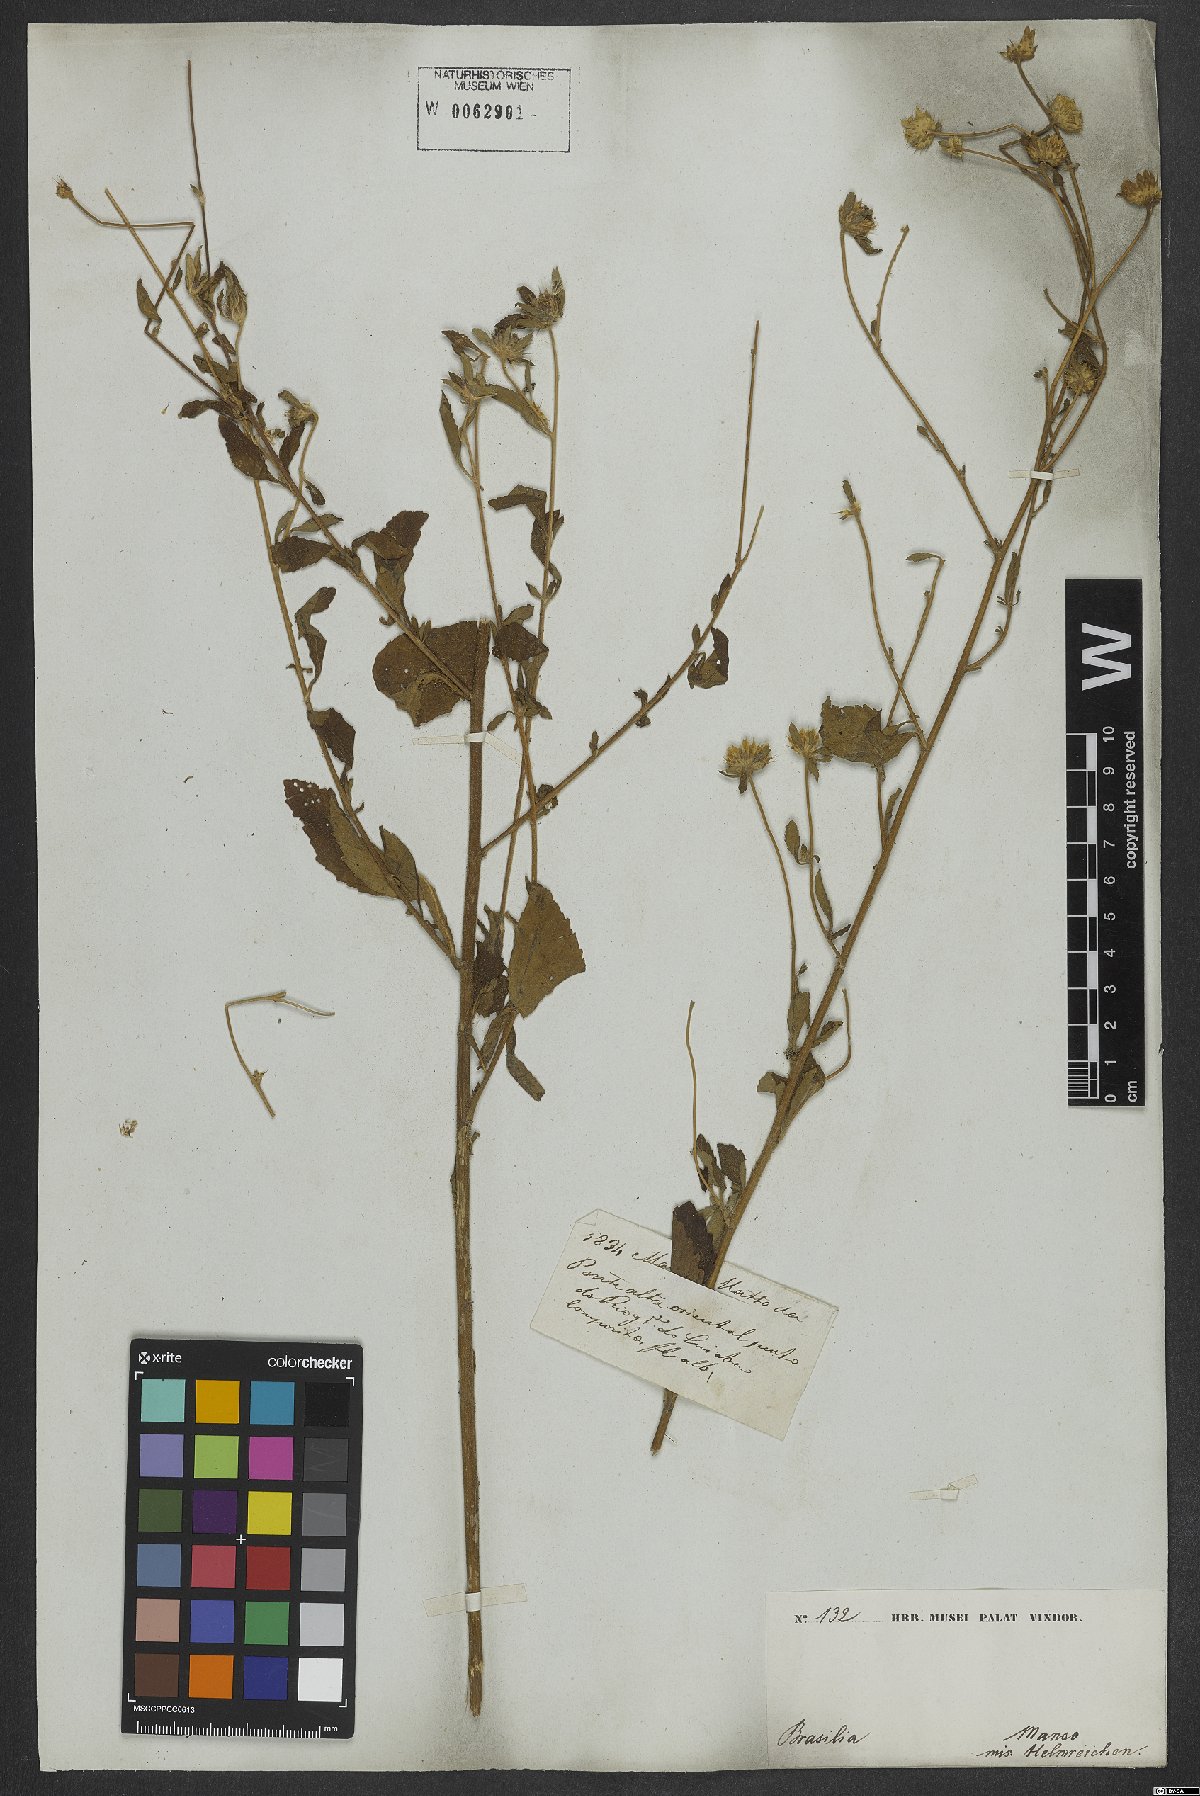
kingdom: Plantae
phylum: Tracheophyta
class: Magnoliopsida
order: Asterales
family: Asteraceae
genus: Centratherum
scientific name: Centratherum punctatum
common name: Larkdaisy
